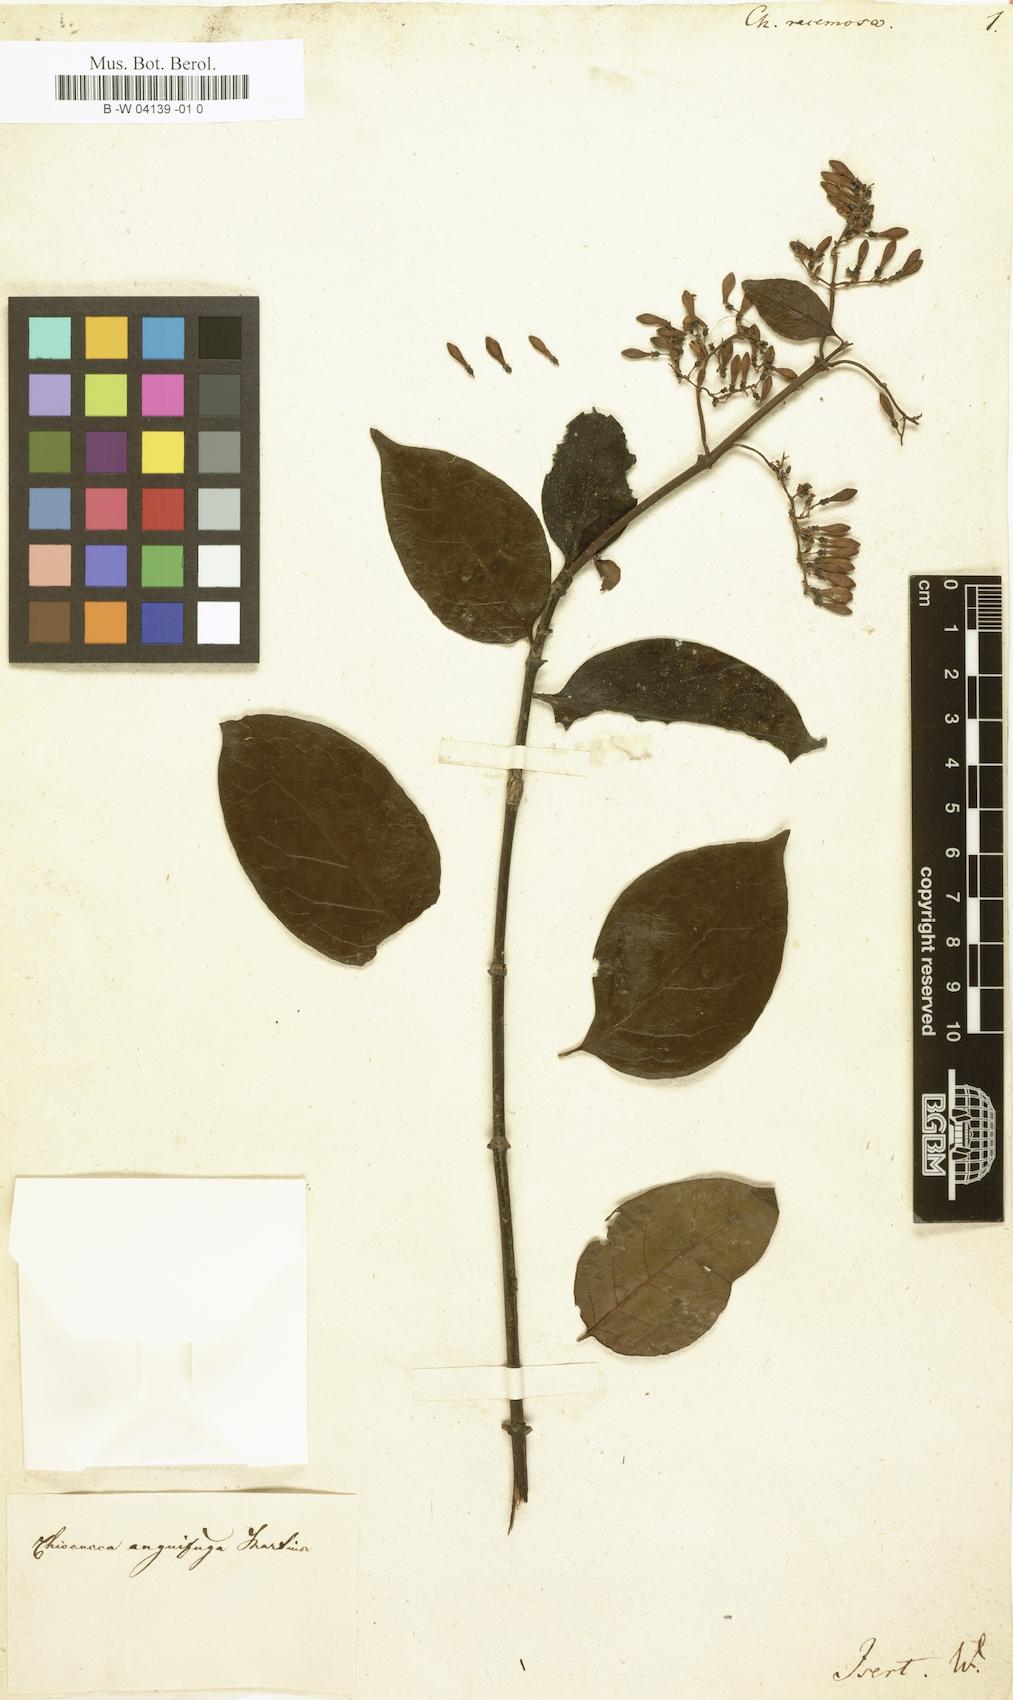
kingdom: Plantae
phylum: Tracheophyta
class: Magnoliopsida
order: Gentianales
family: Rubiaceae
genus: Chiococca
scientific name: Chiococca racemosa
